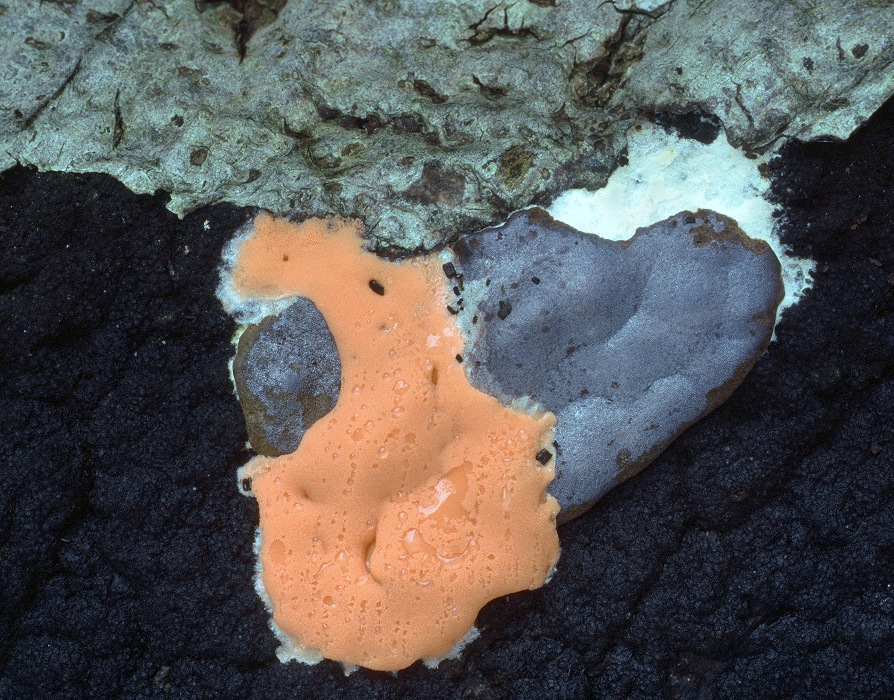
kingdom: Protozoa
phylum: Mycetozoa
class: Myxomycetes
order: Trichiales
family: Dictydiaethaliaceae
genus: Dictydiaethalium
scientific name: Dictydiaethalium plumbeum
